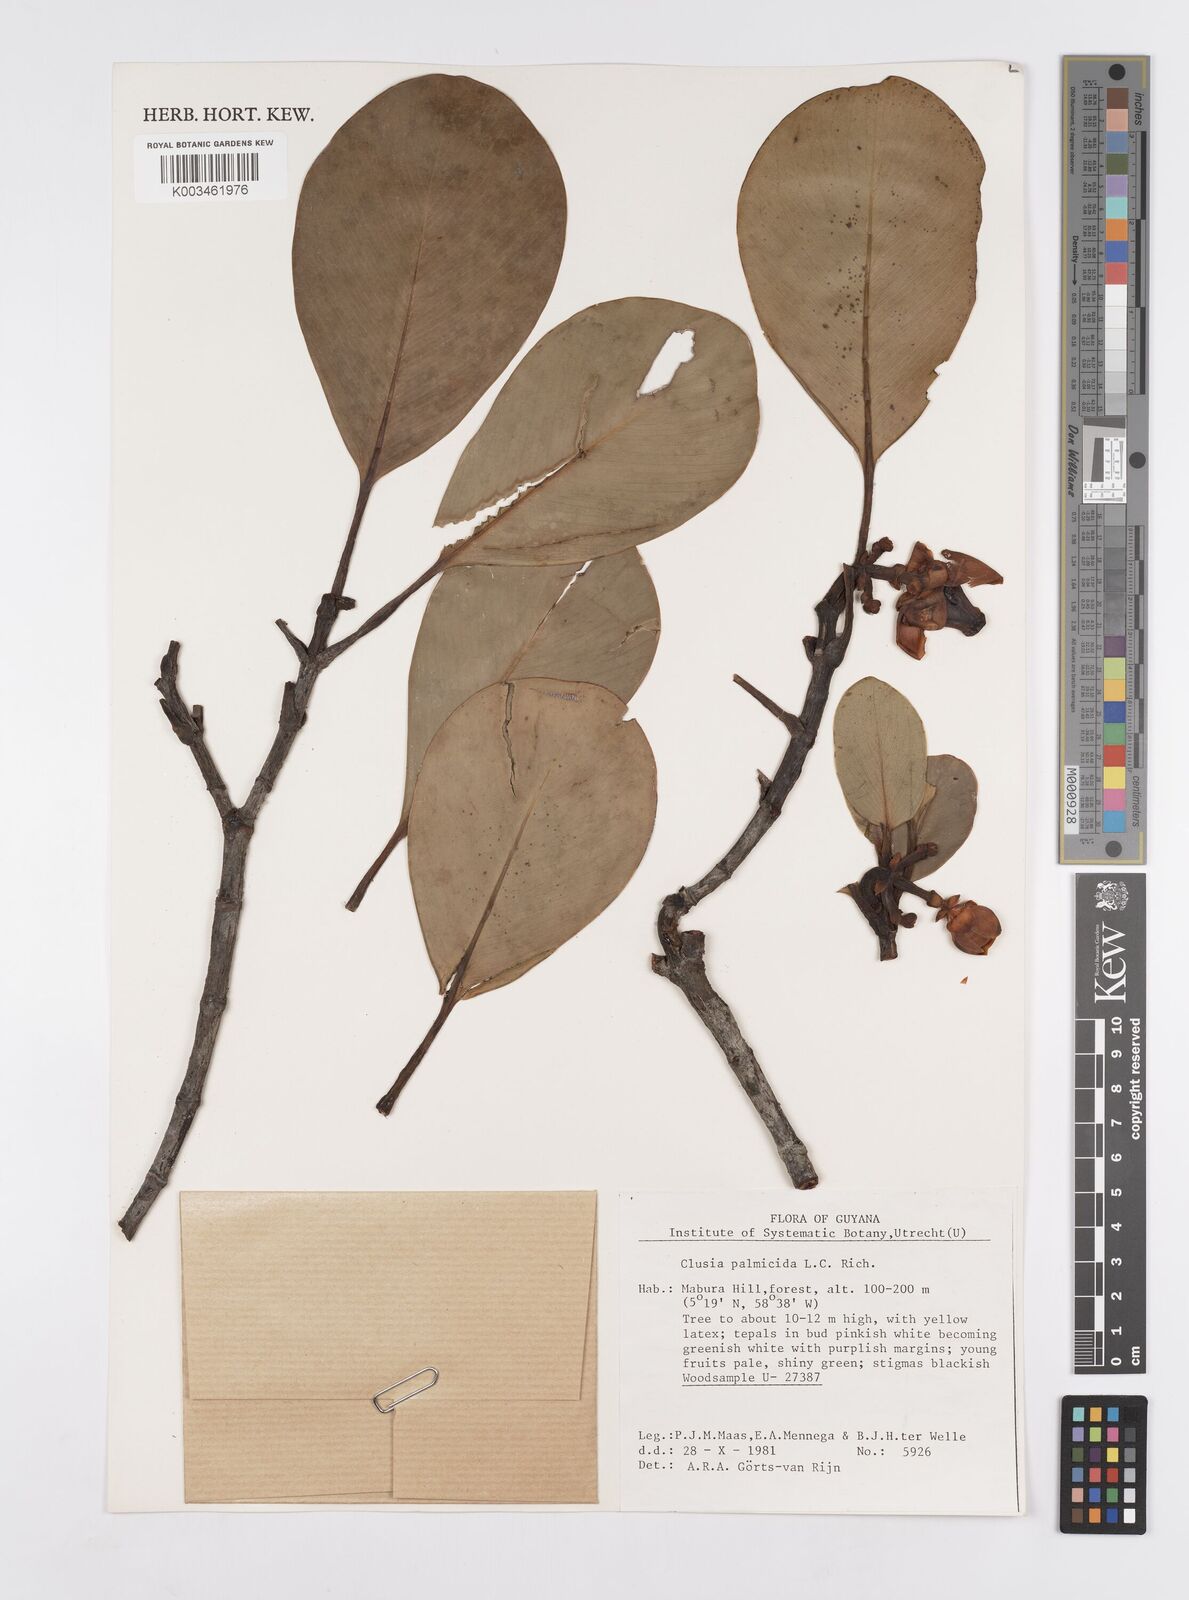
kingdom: Plantae
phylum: Tracheophyta
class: Magnoliopsida
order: Malpighiales
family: Clusiaceae
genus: Clusia
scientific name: Clusia palmicida
